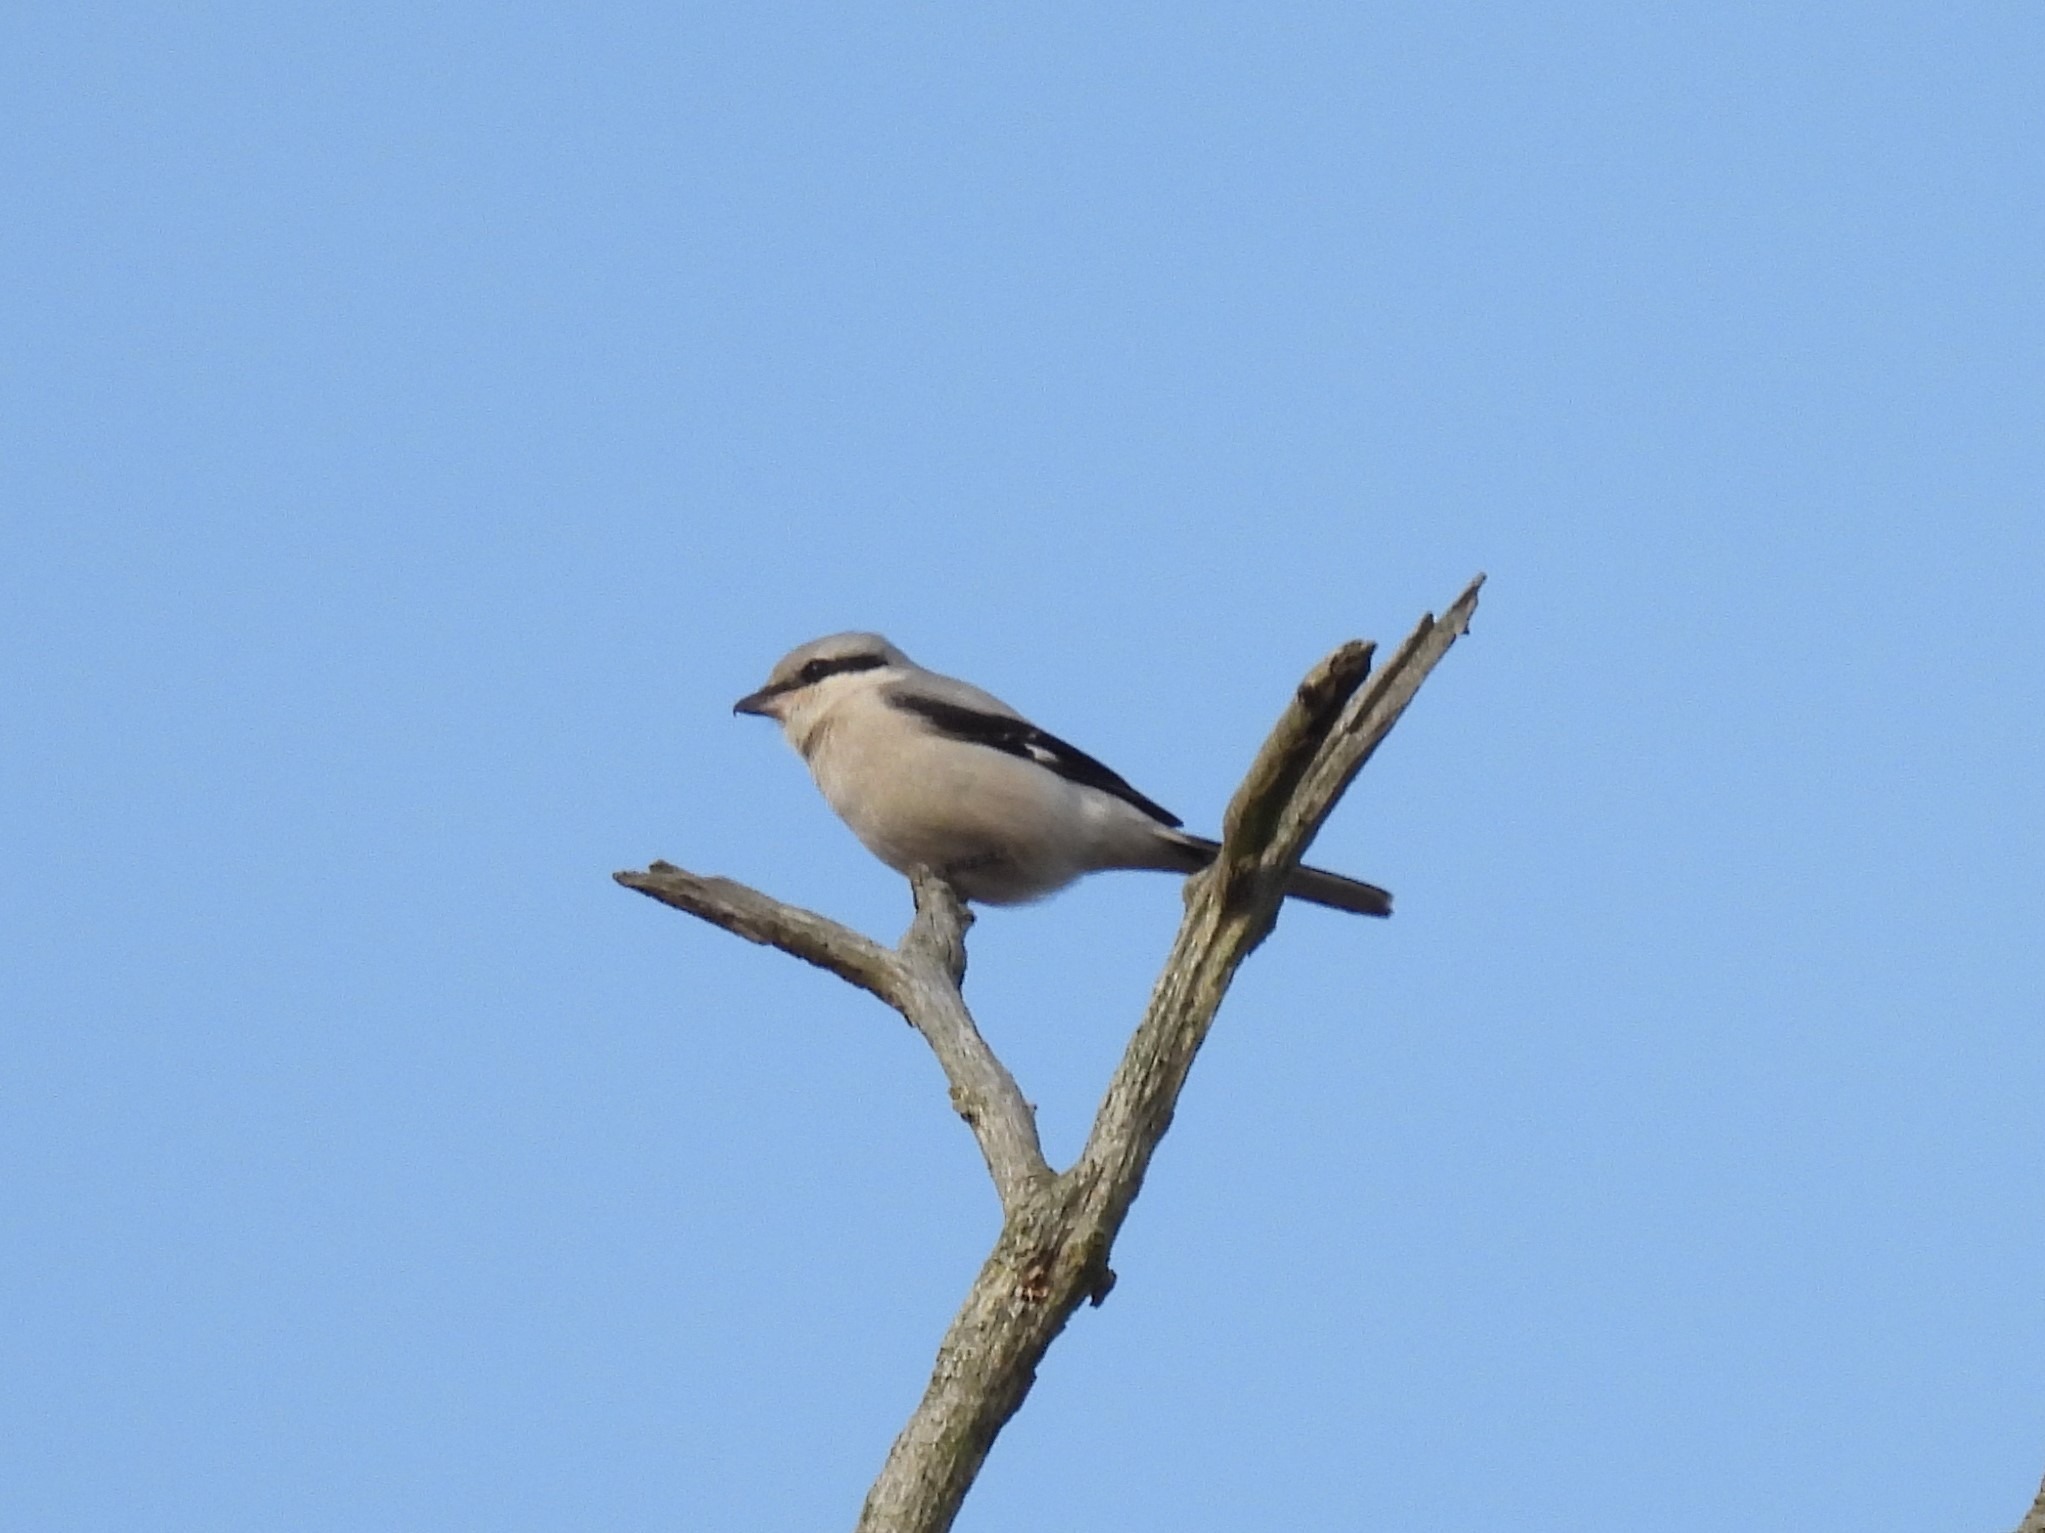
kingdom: Animalia
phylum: Chordata
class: Aves
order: Passeriformes
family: Laniidae
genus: Lanius
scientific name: Lanius excubitor
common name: Stor tornskade
